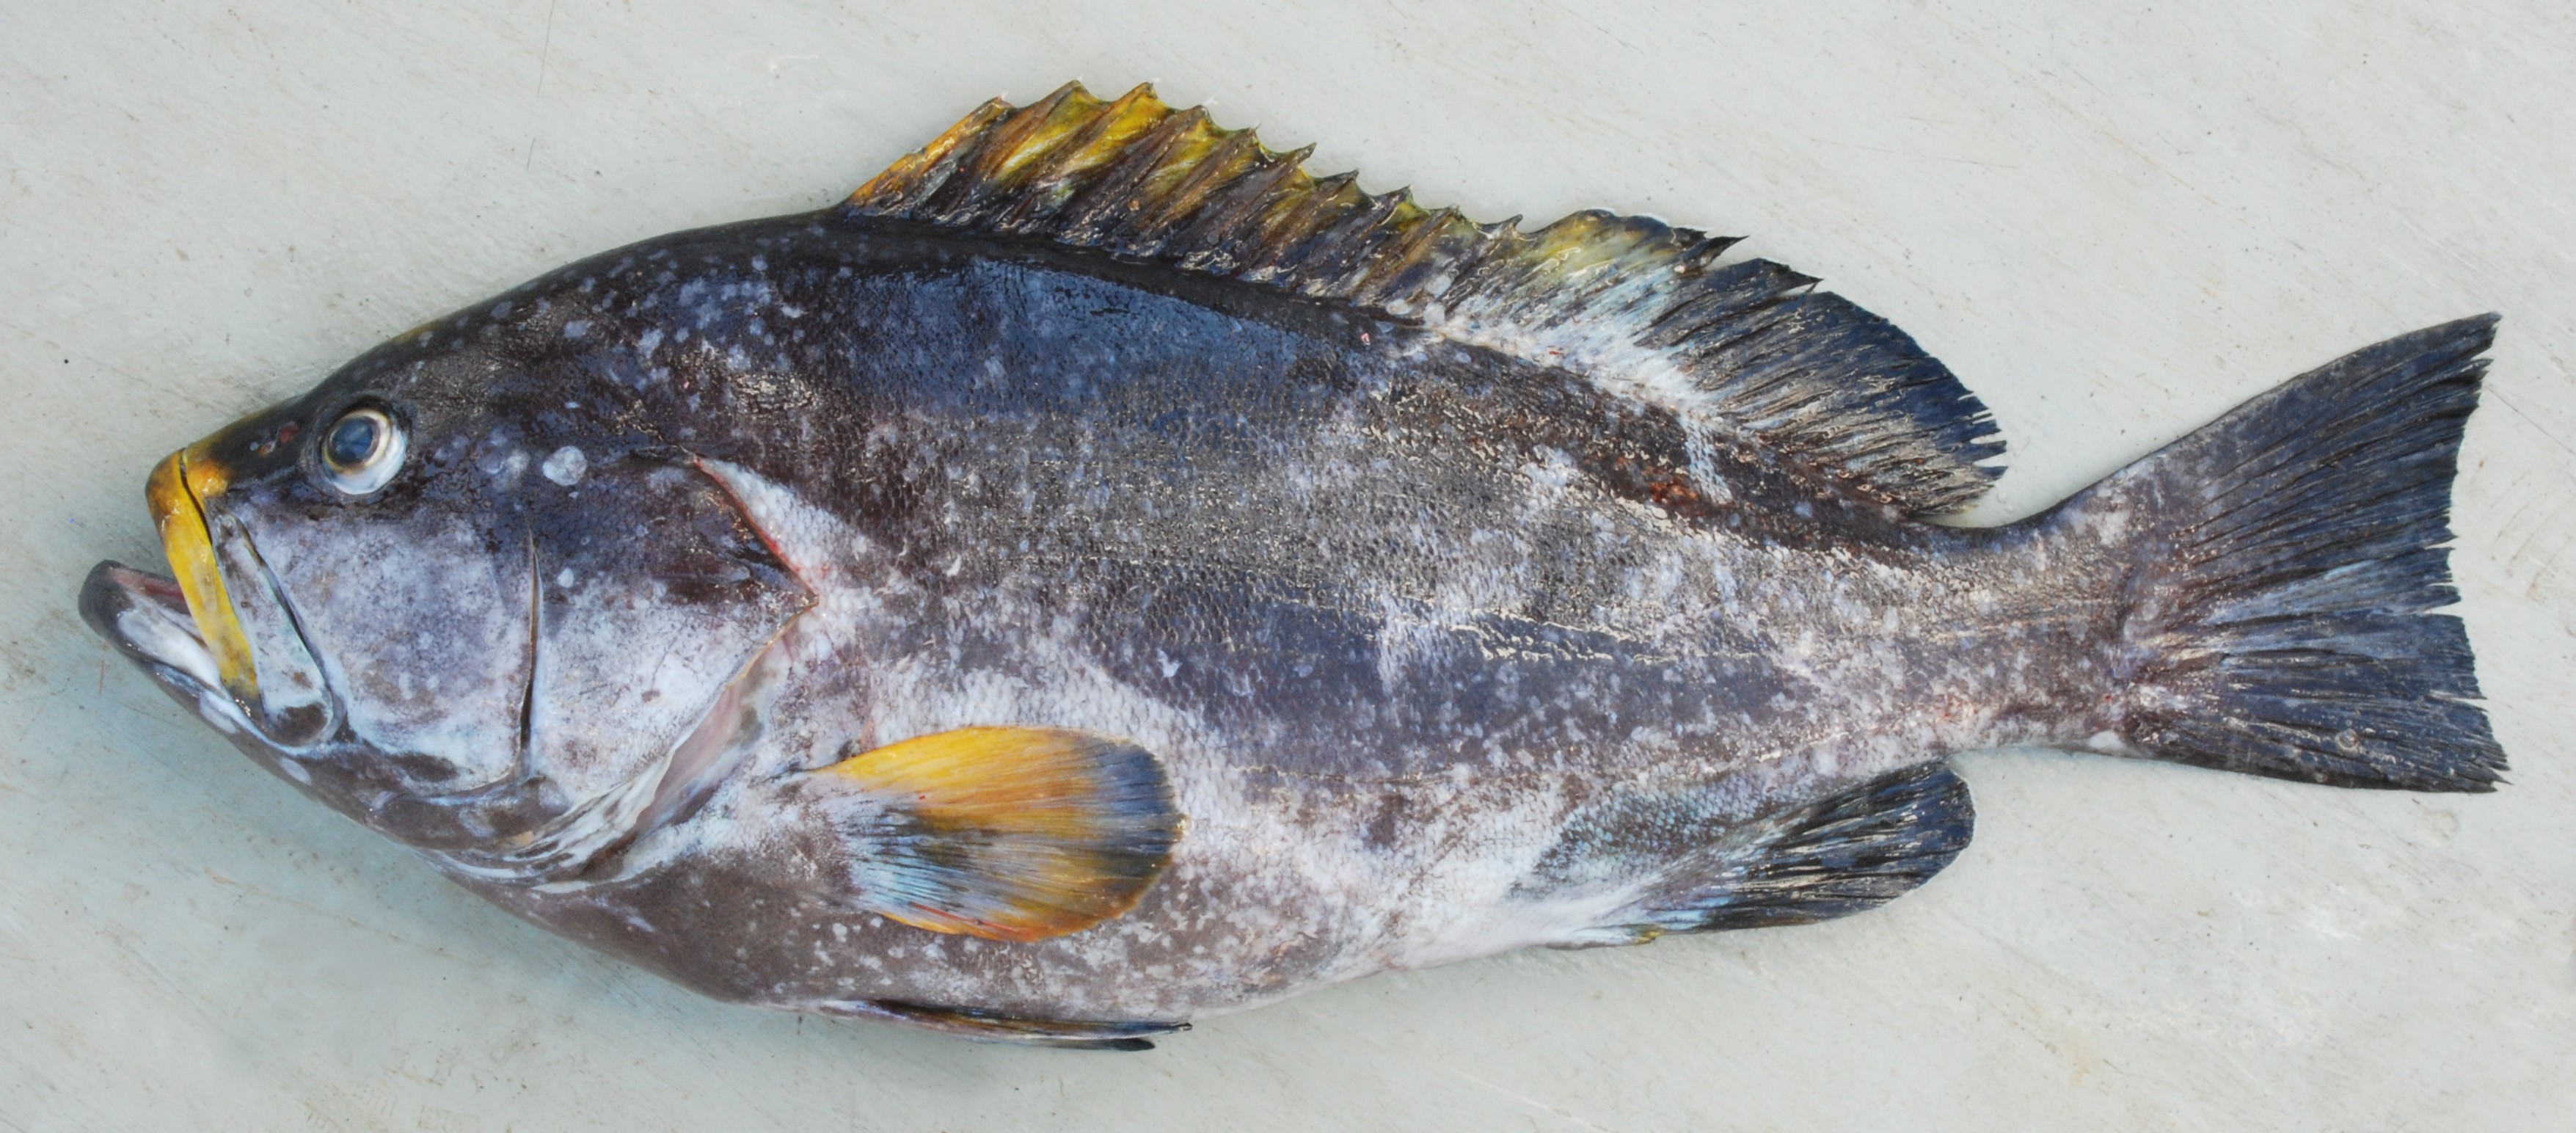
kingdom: Animalia
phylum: Chordata
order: Perciformes
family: Serranidae
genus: Epinephelus
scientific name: Epinephelus flavocaeruleus
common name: Blue and yellow grouper
